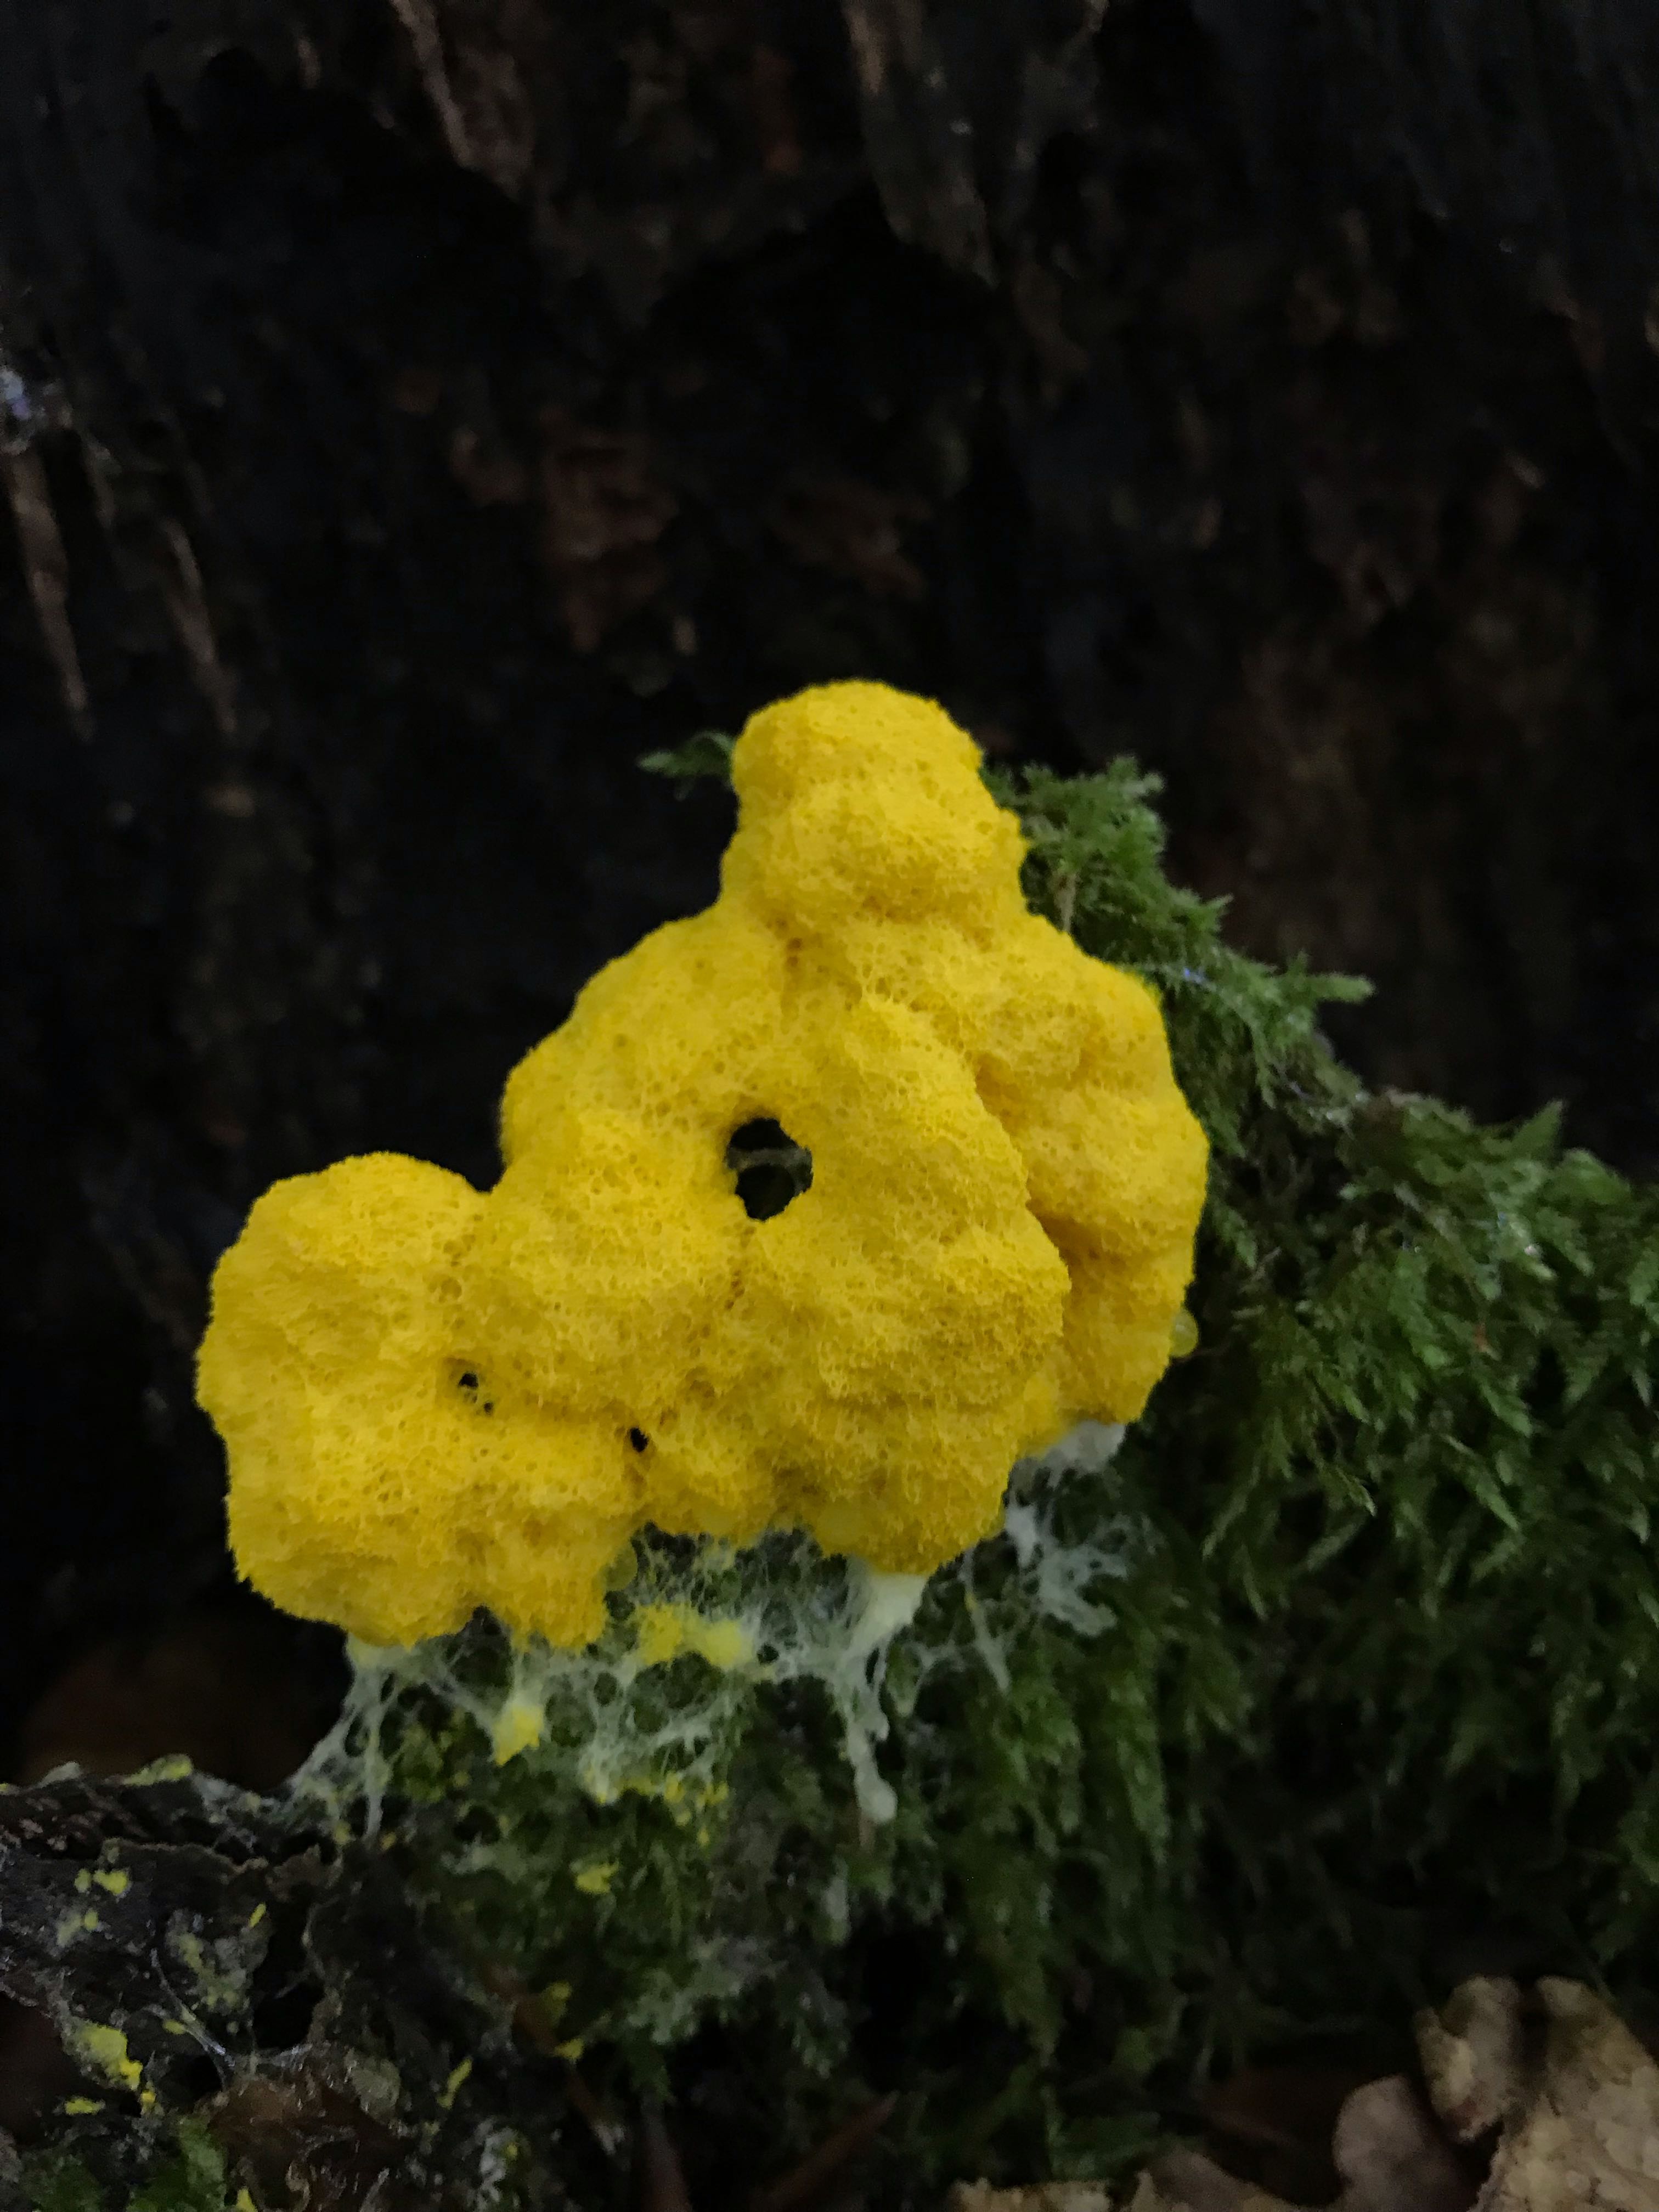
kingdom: Protozoa
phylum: Mycetozoa
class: Myxomycetes
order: Physarales
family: Physaraceae
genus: Fuligo
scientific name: Fuligo septica
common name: gul troldsmør
